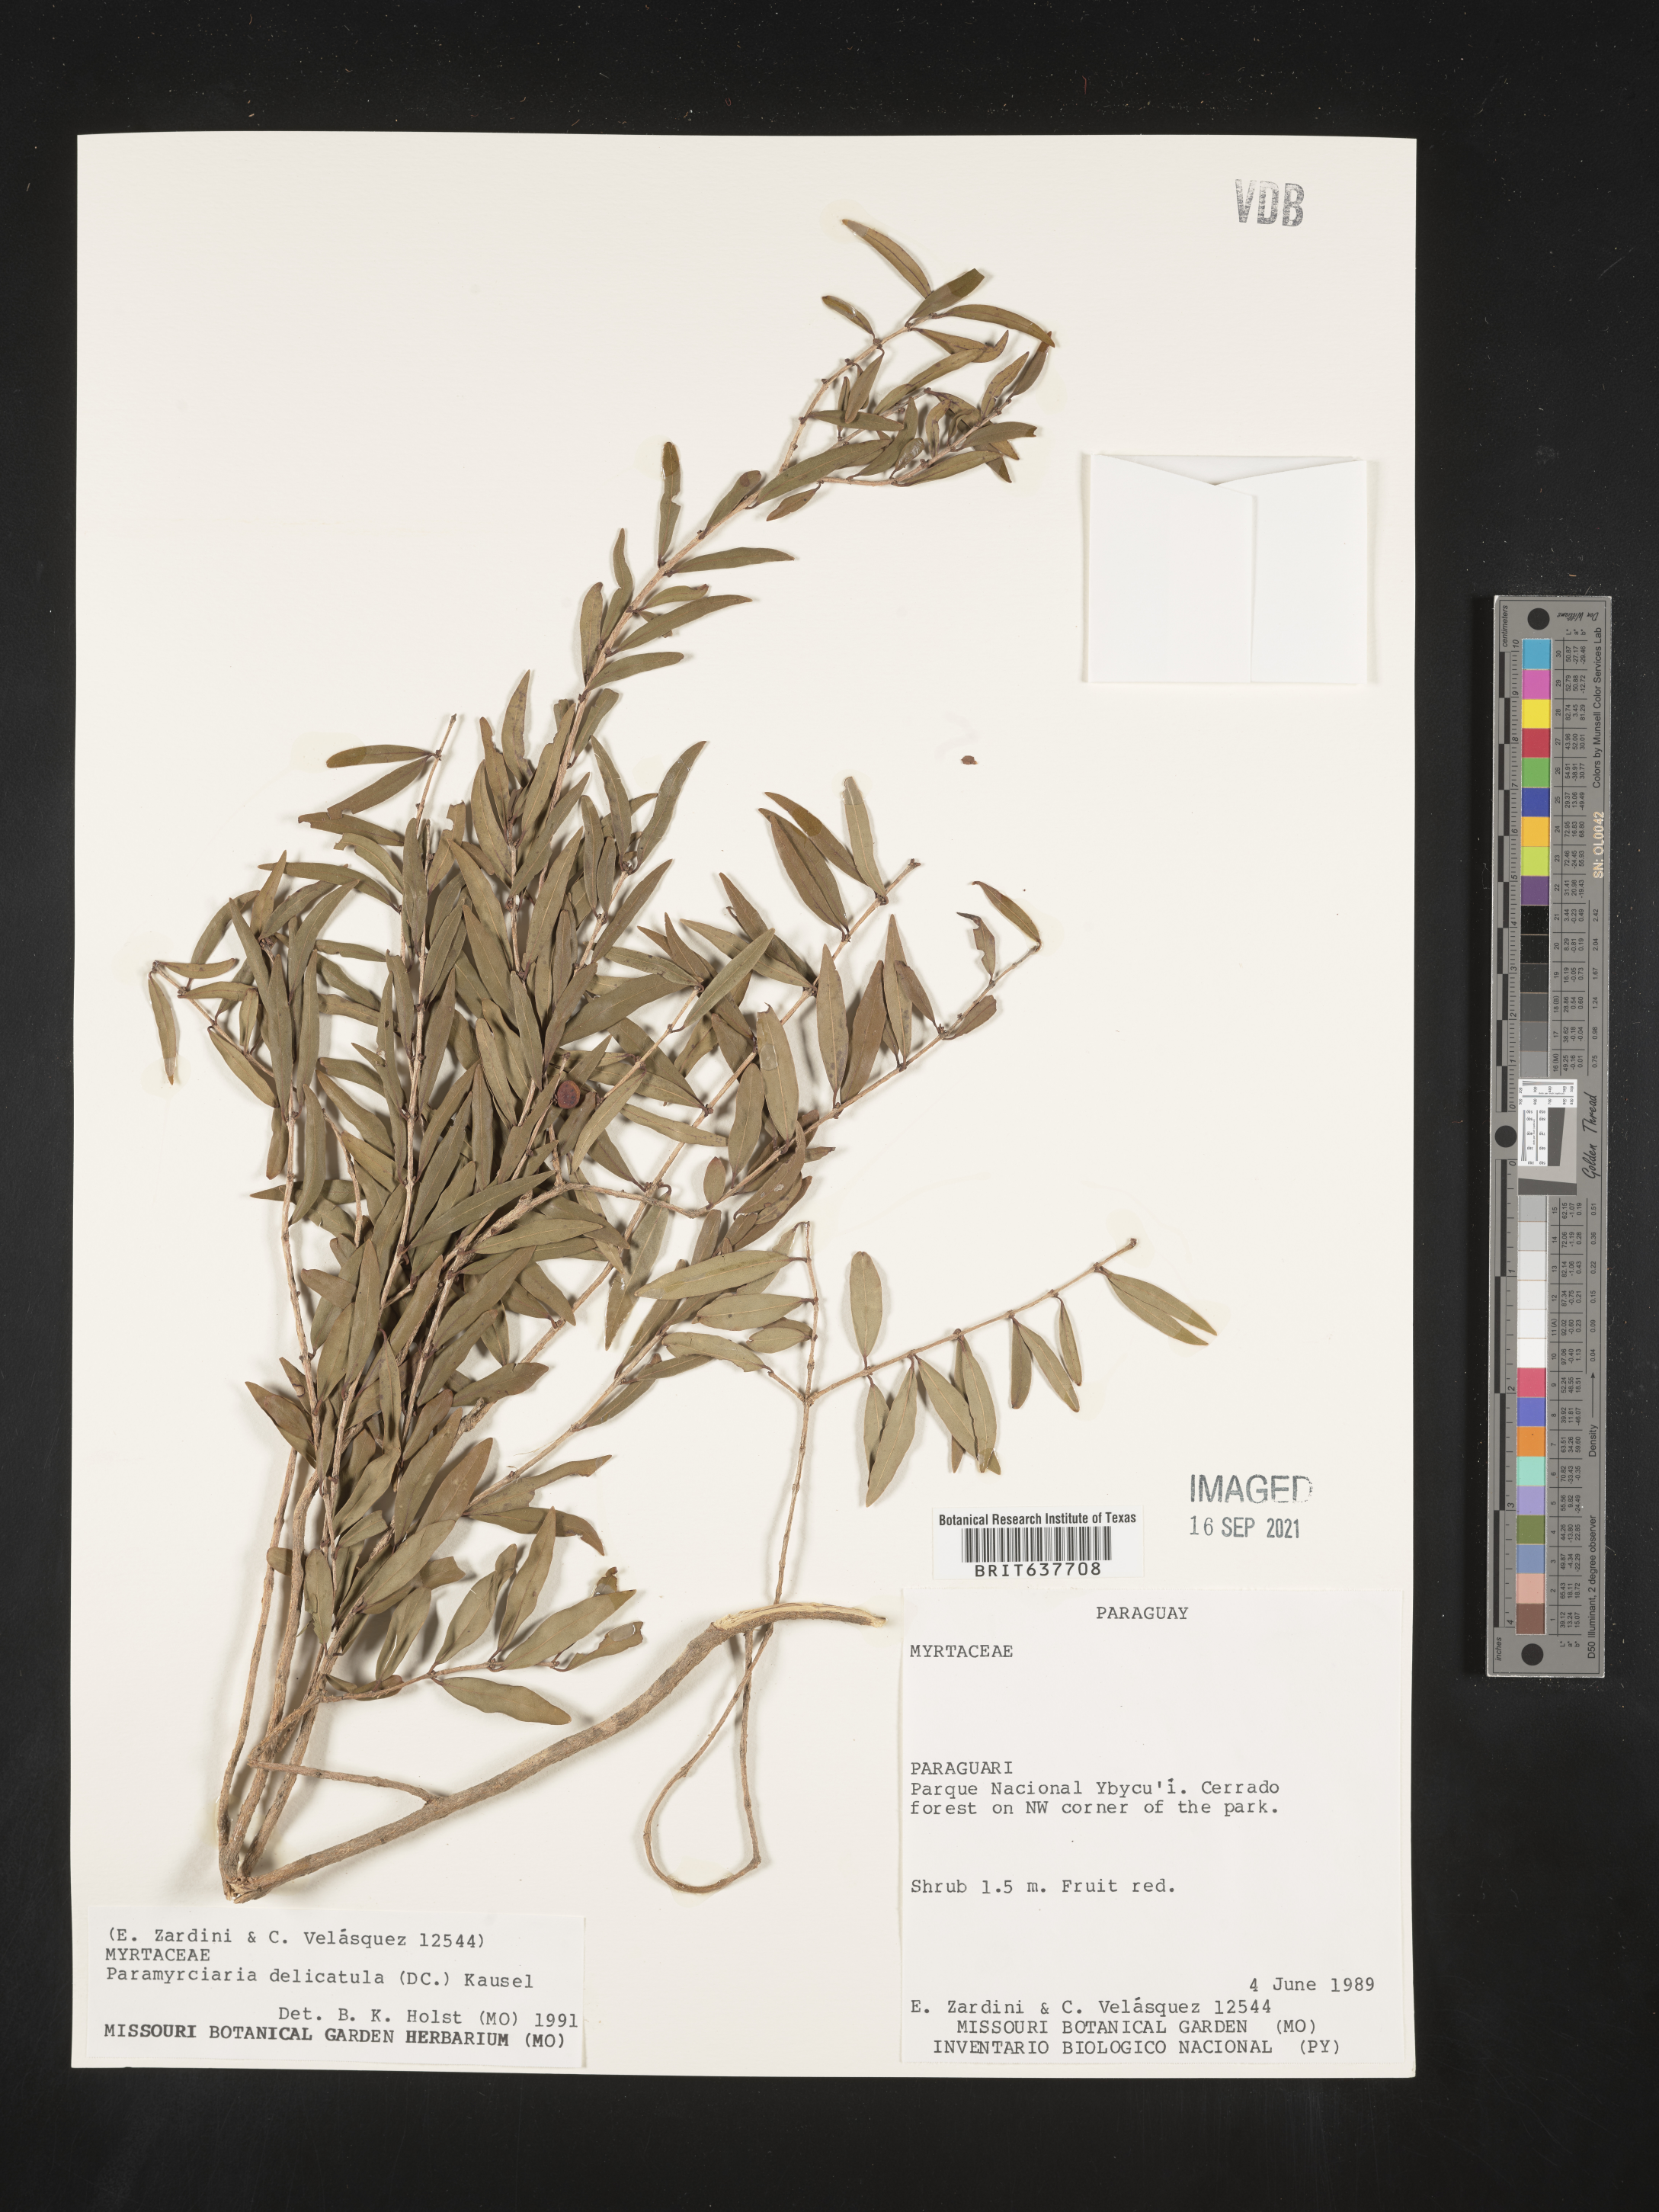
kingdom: Plantae
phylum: Tracheophyta
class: Magnoliopsida
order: Myrtales
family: Myrtaceae
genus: Myrciaria
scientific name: Myrciaria
